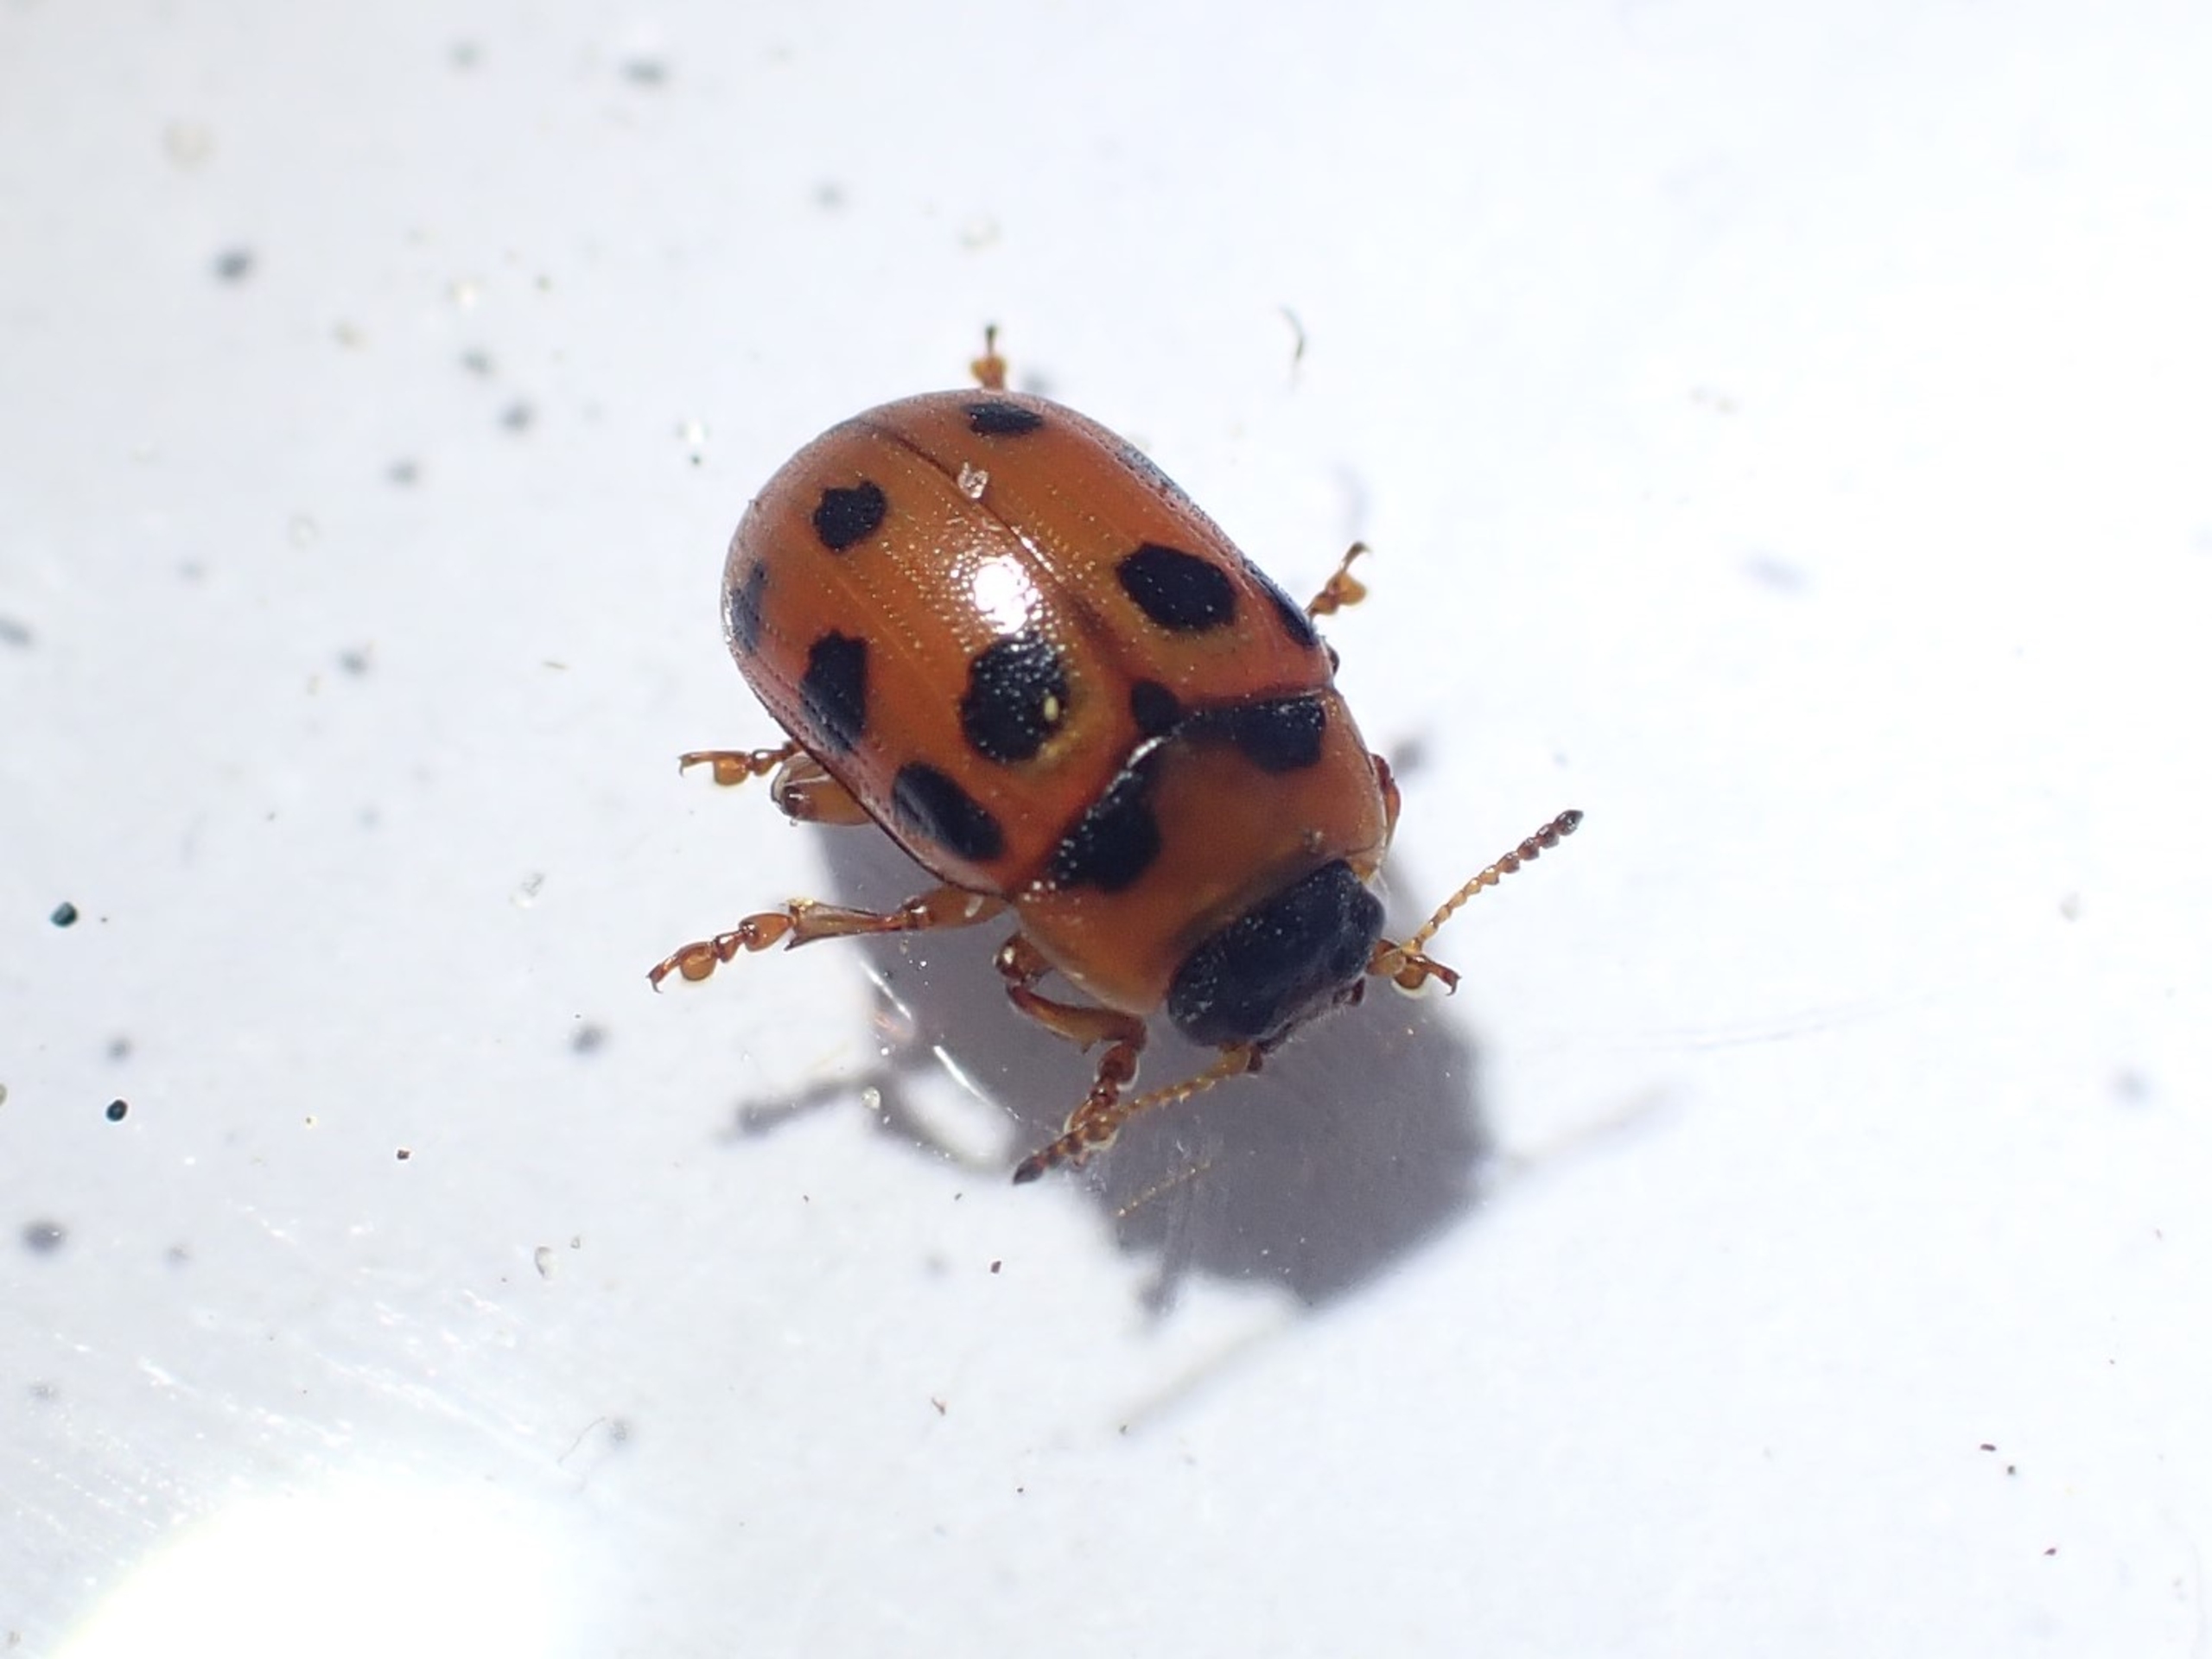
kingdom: Animalia
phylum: Arthropoda
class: Insecta
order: Coleoptera
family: Chrysomelidae
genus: Gonioctena
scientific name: Gonioctena decemnotata
